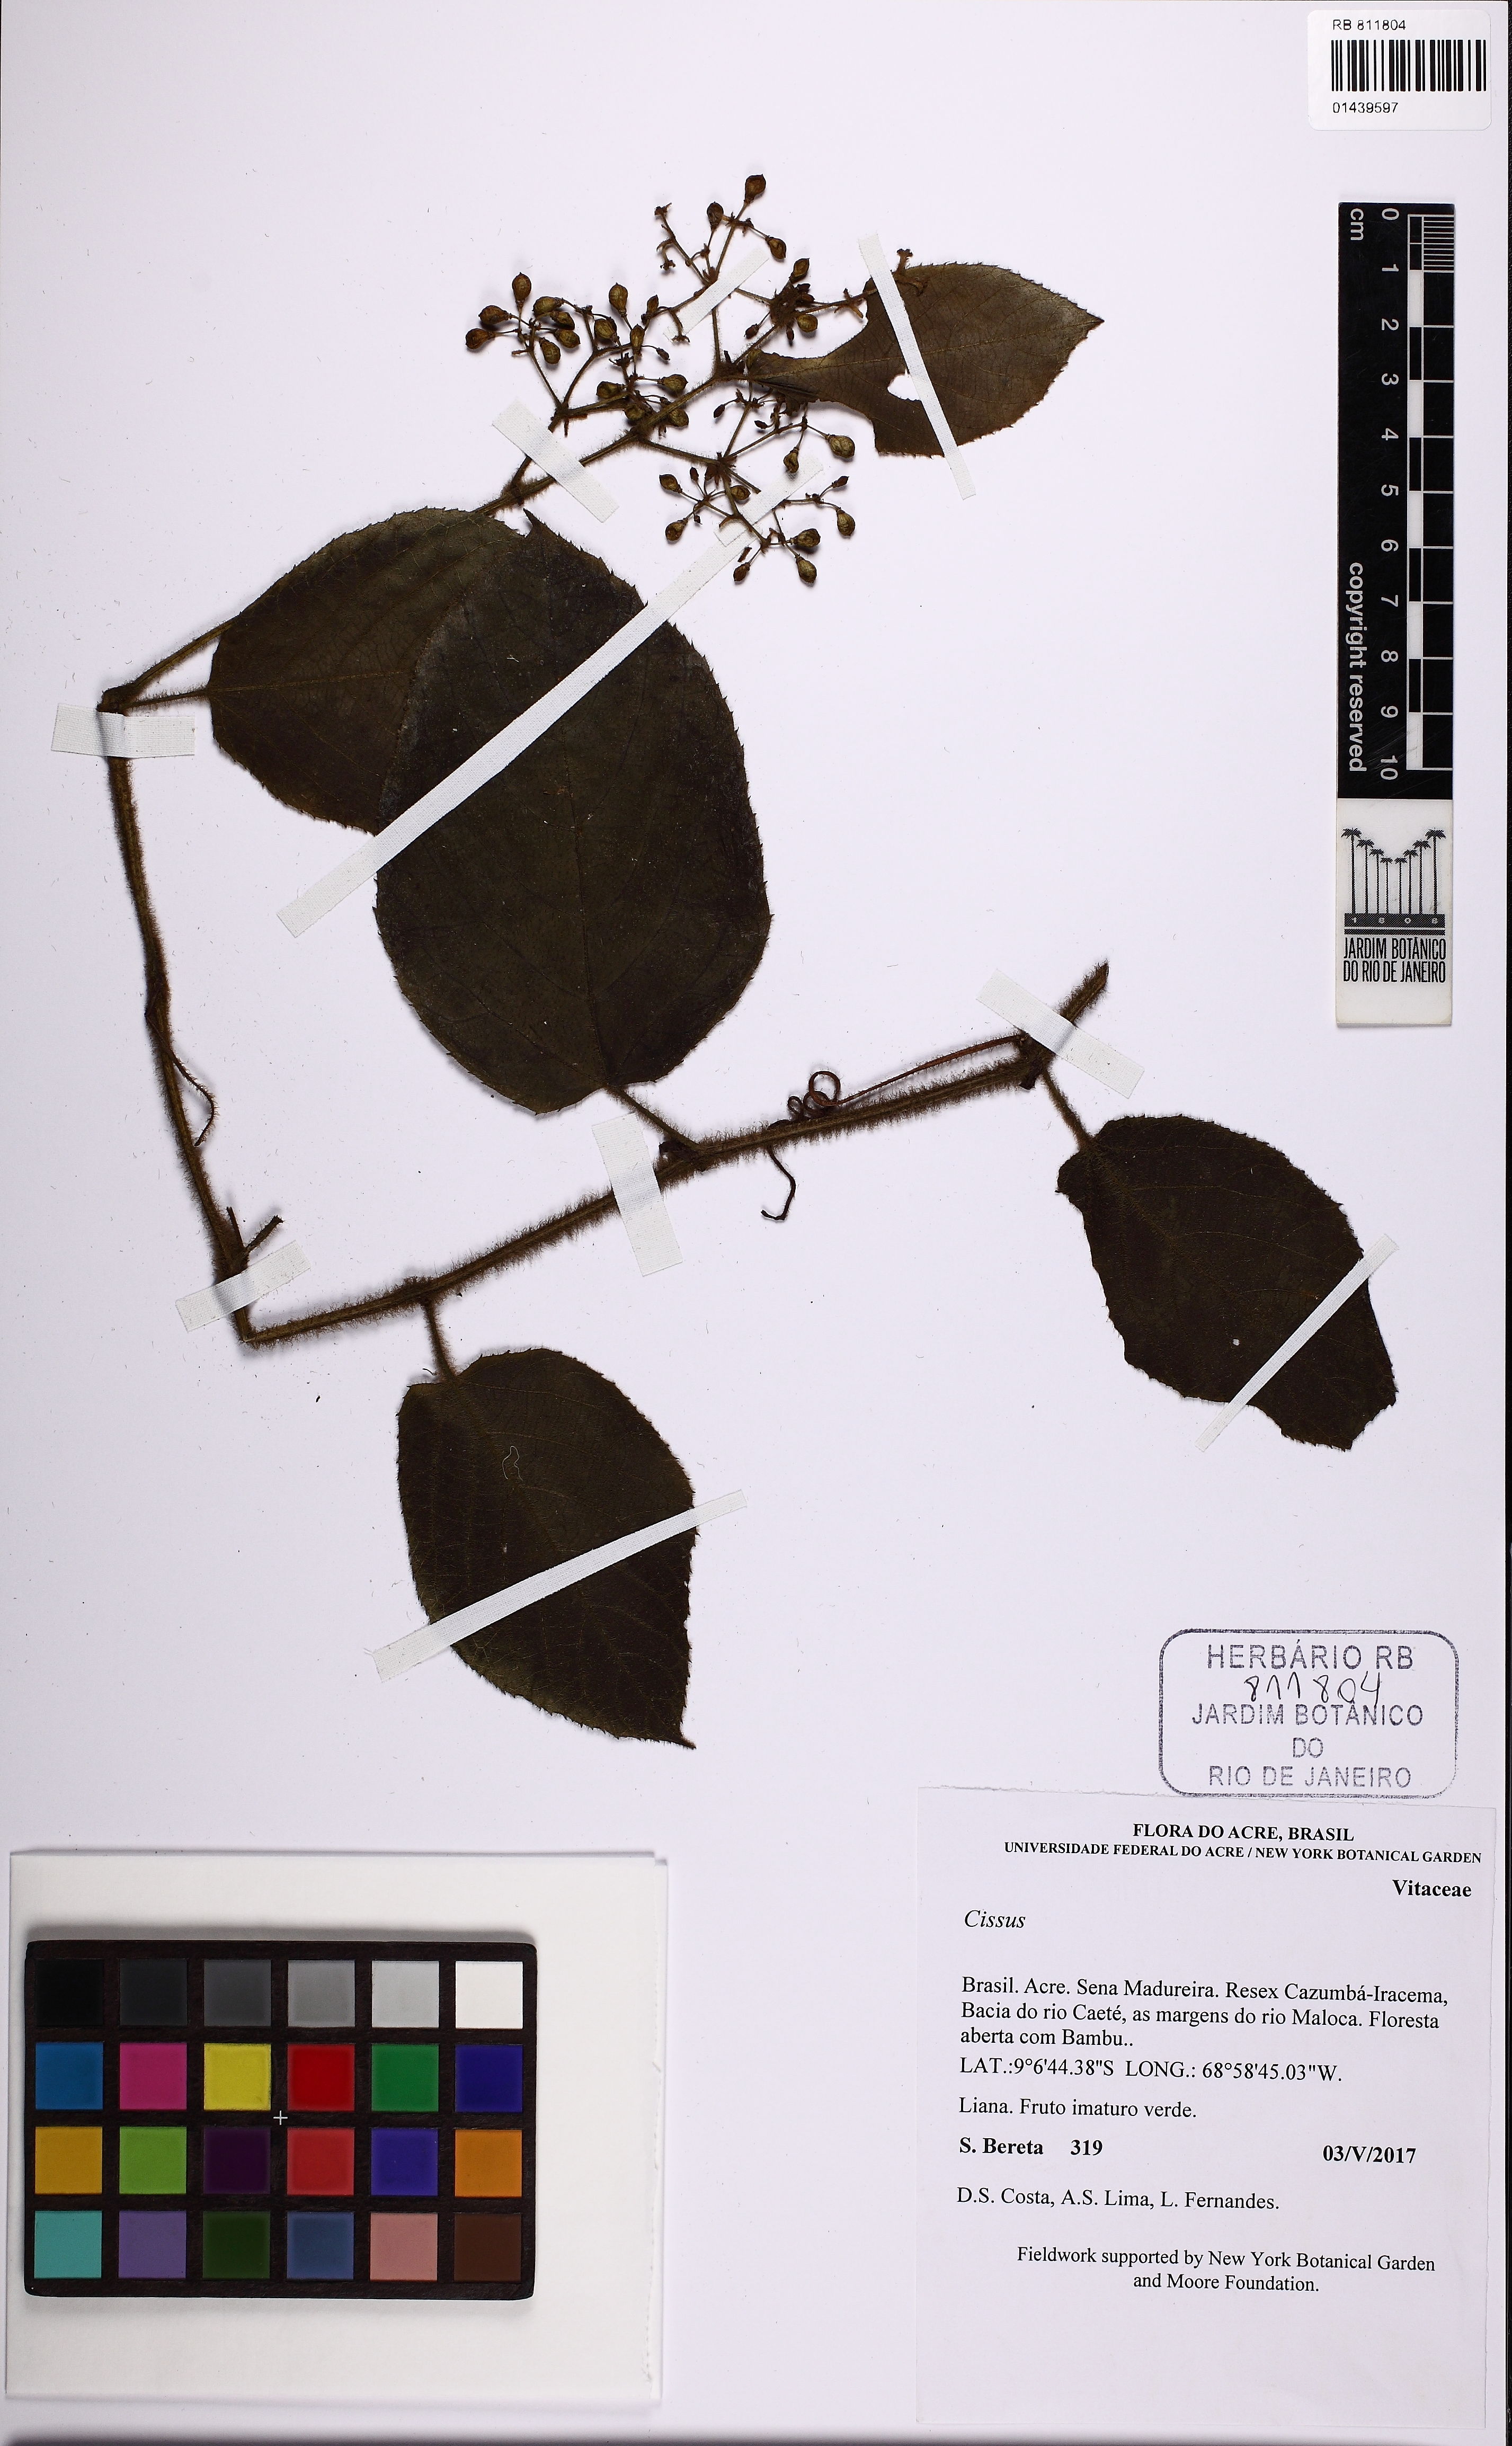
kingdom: Plantae
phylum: Tracheophyta
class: Magnoliopsida
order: Vitales
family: Vitaceae
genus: Cissus
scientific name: Cissus
